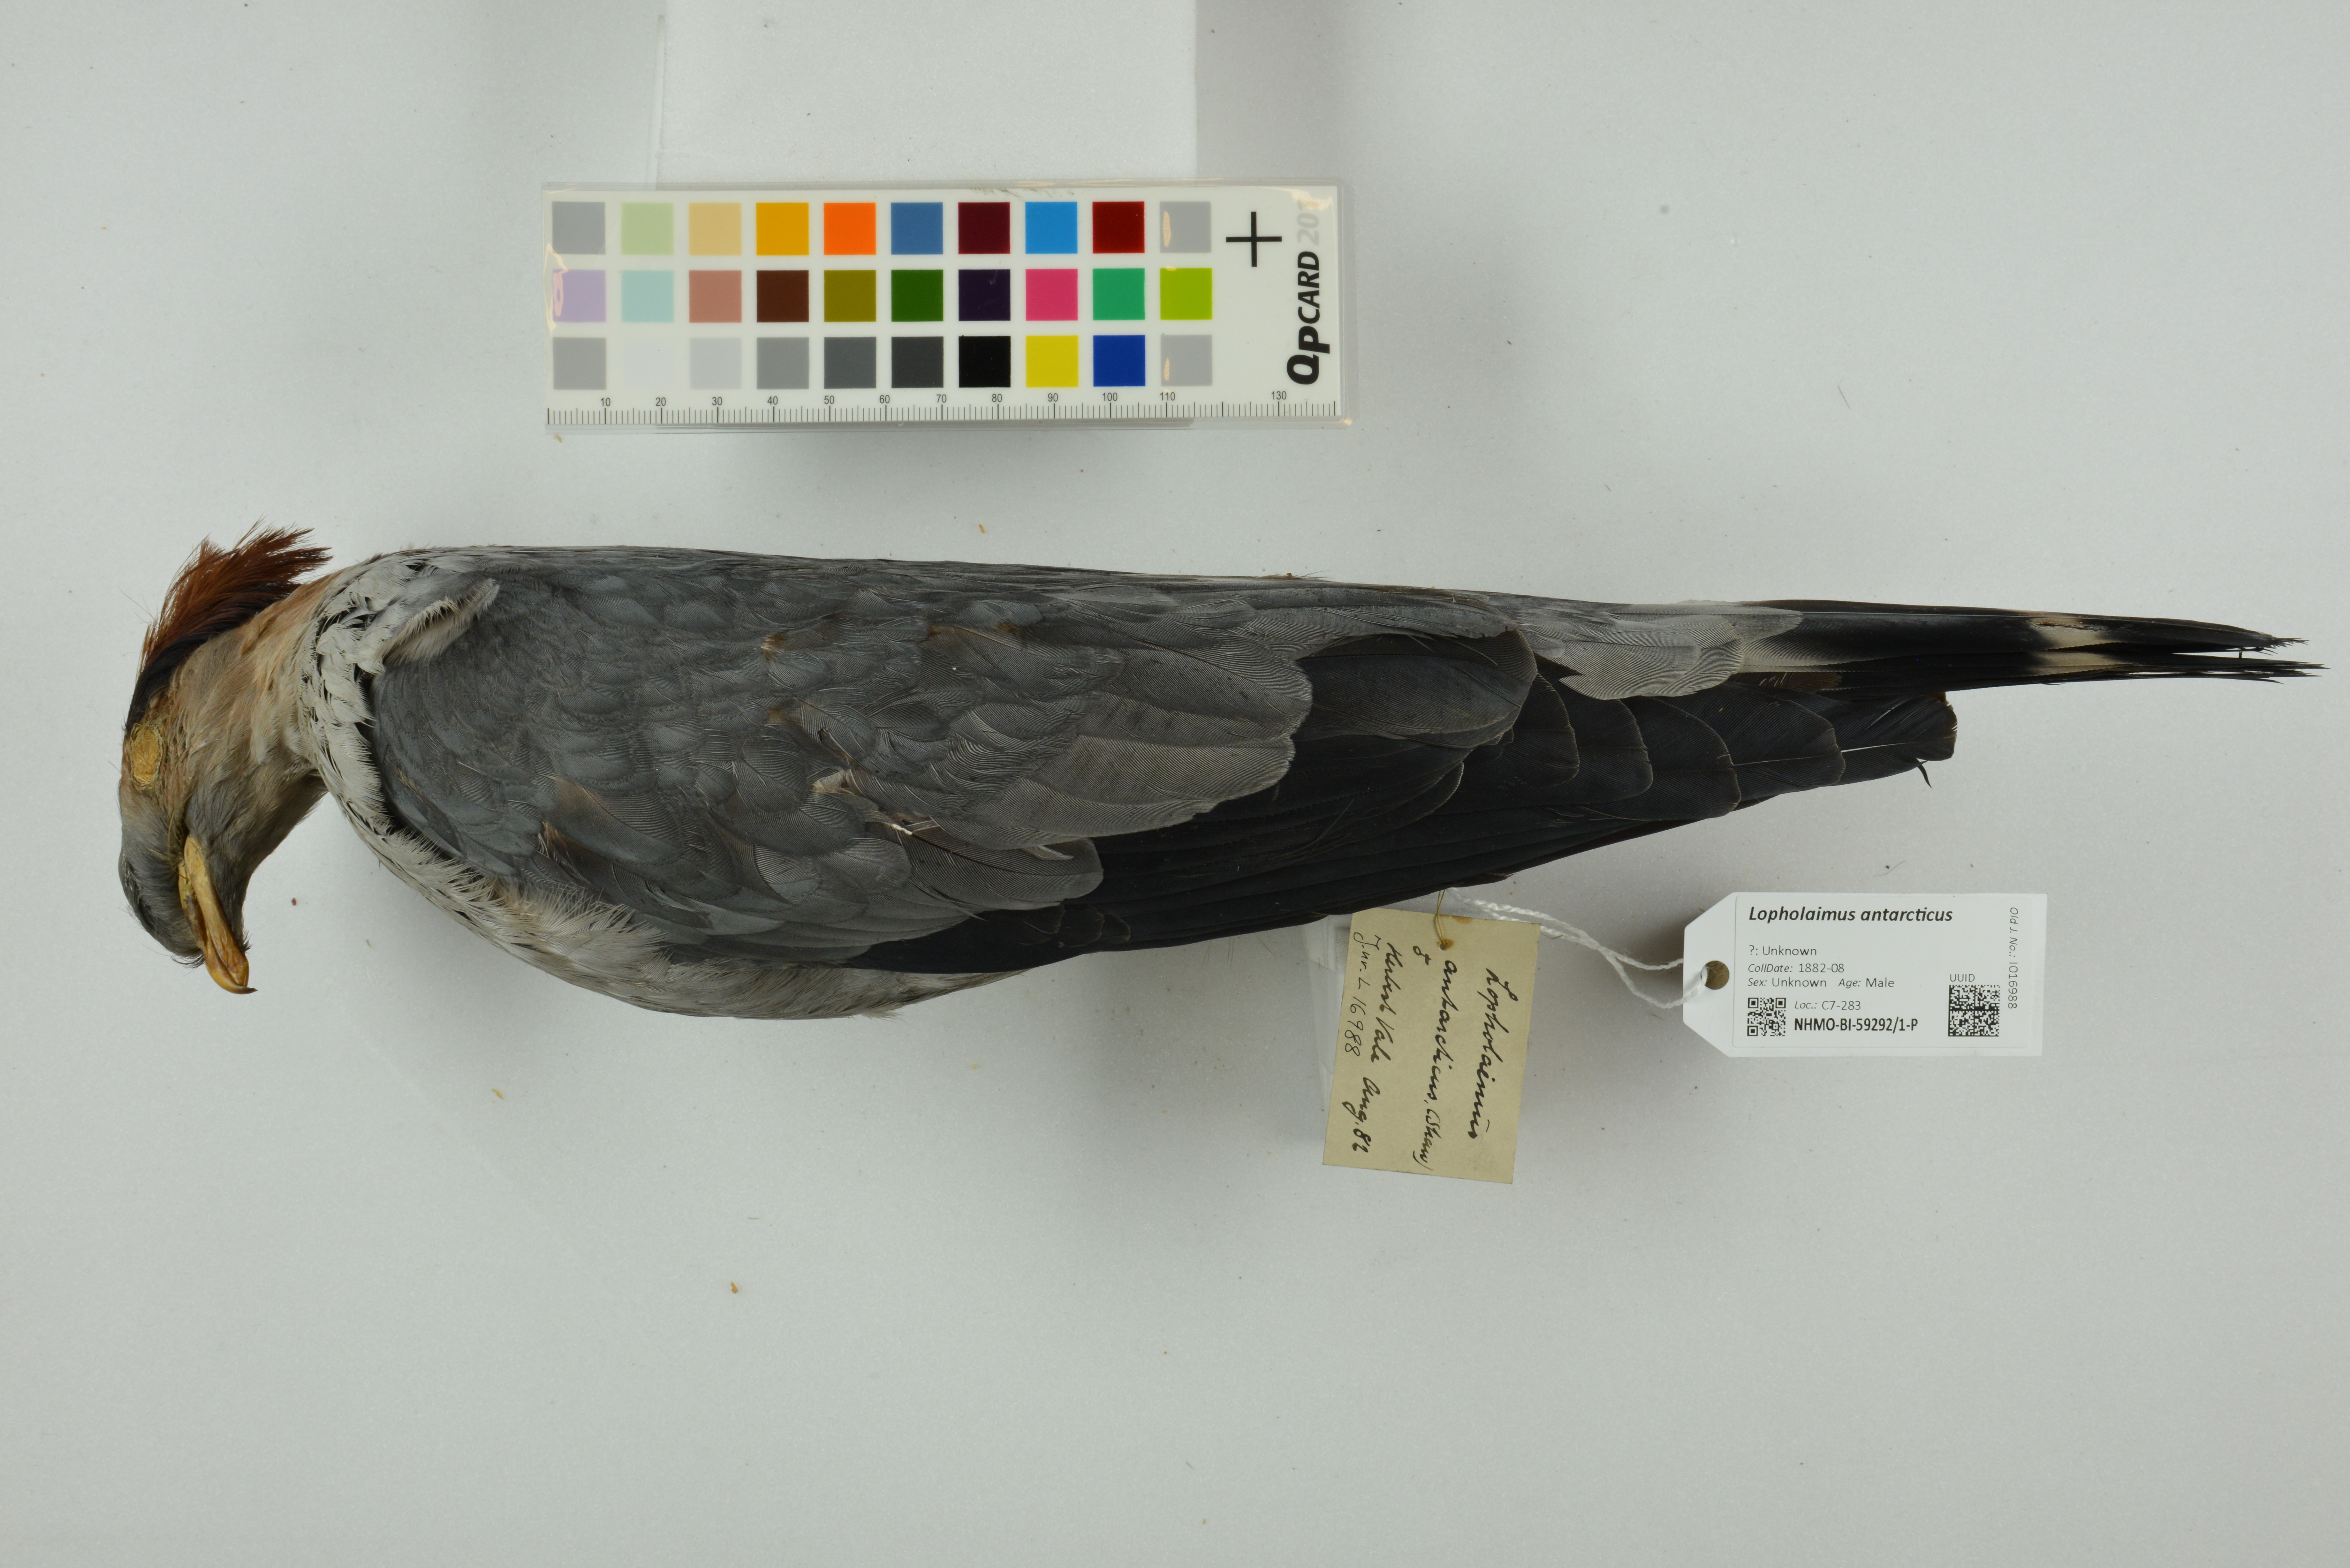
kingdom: Animalia
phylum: Chordata
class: Aves
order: Columbiformes
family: Columbidae
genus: Lopholaimus
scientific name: Lopholaimus antarcticus
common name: Topknot pigeon
